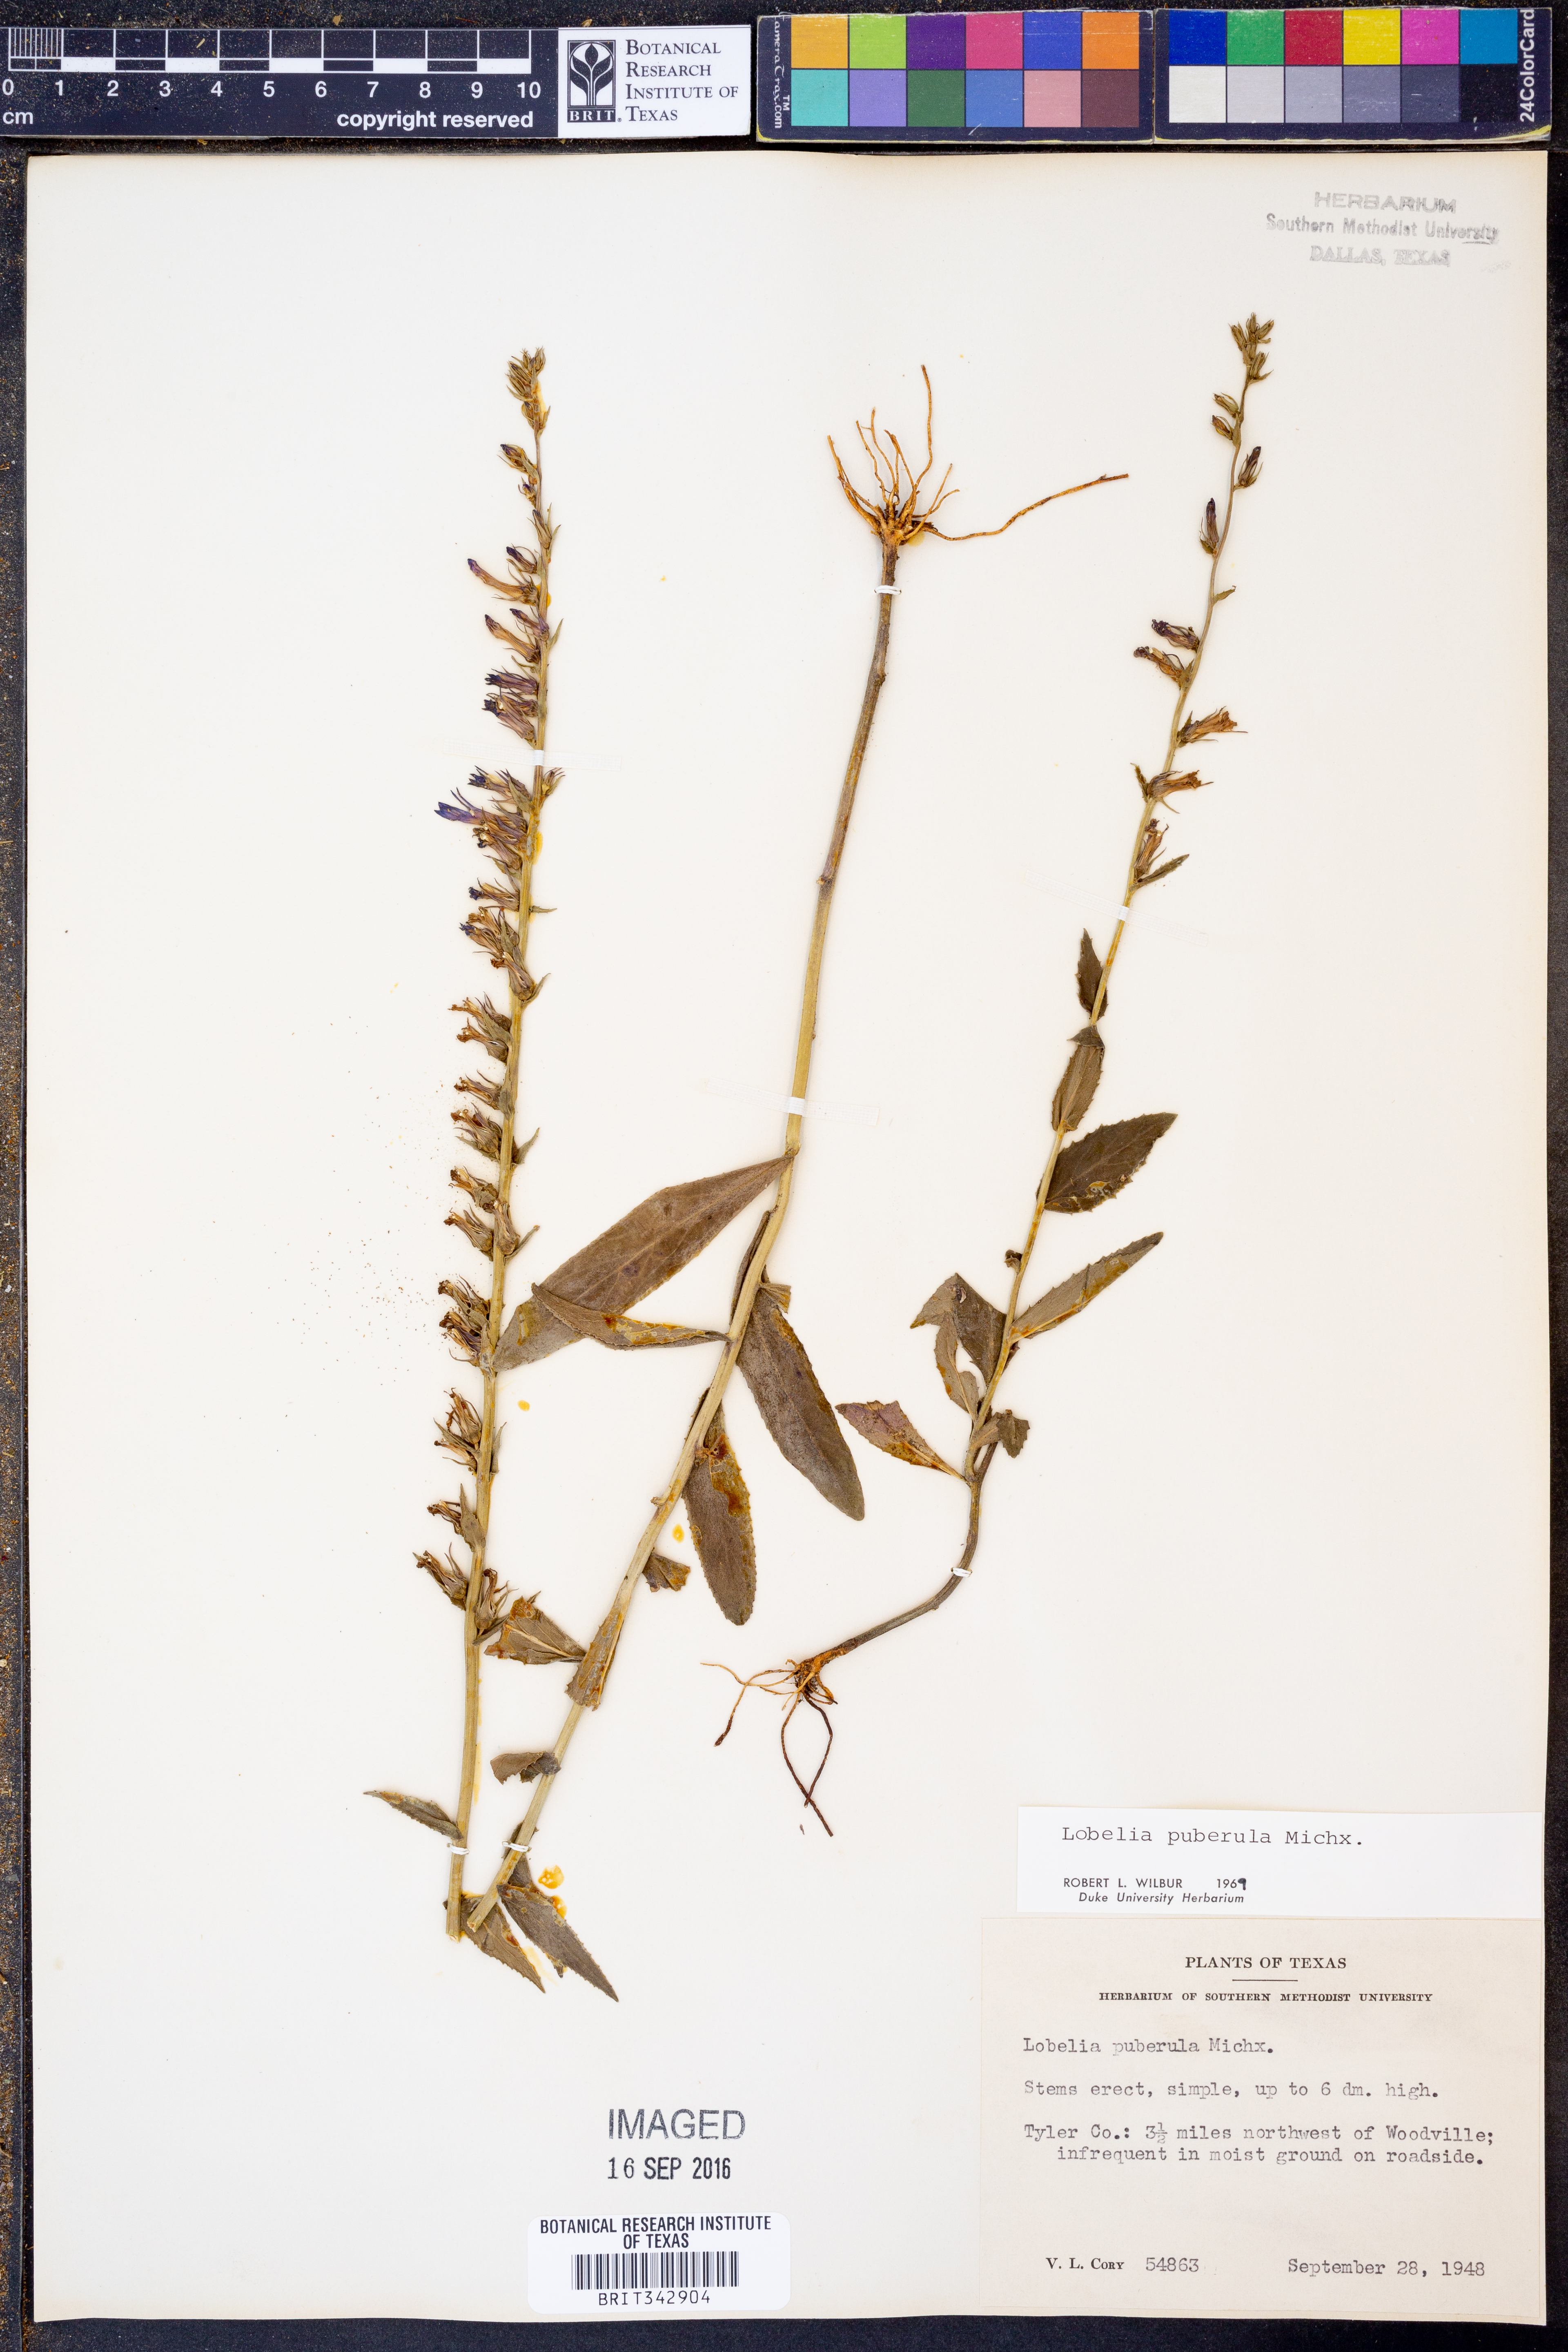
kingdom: Plantae
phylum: Tracheophyta
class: Magnoliopsida
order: Asterales
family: Campanulaceae
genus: Lobelia
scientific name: Lobelia puberula
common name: Purple dewdrop
